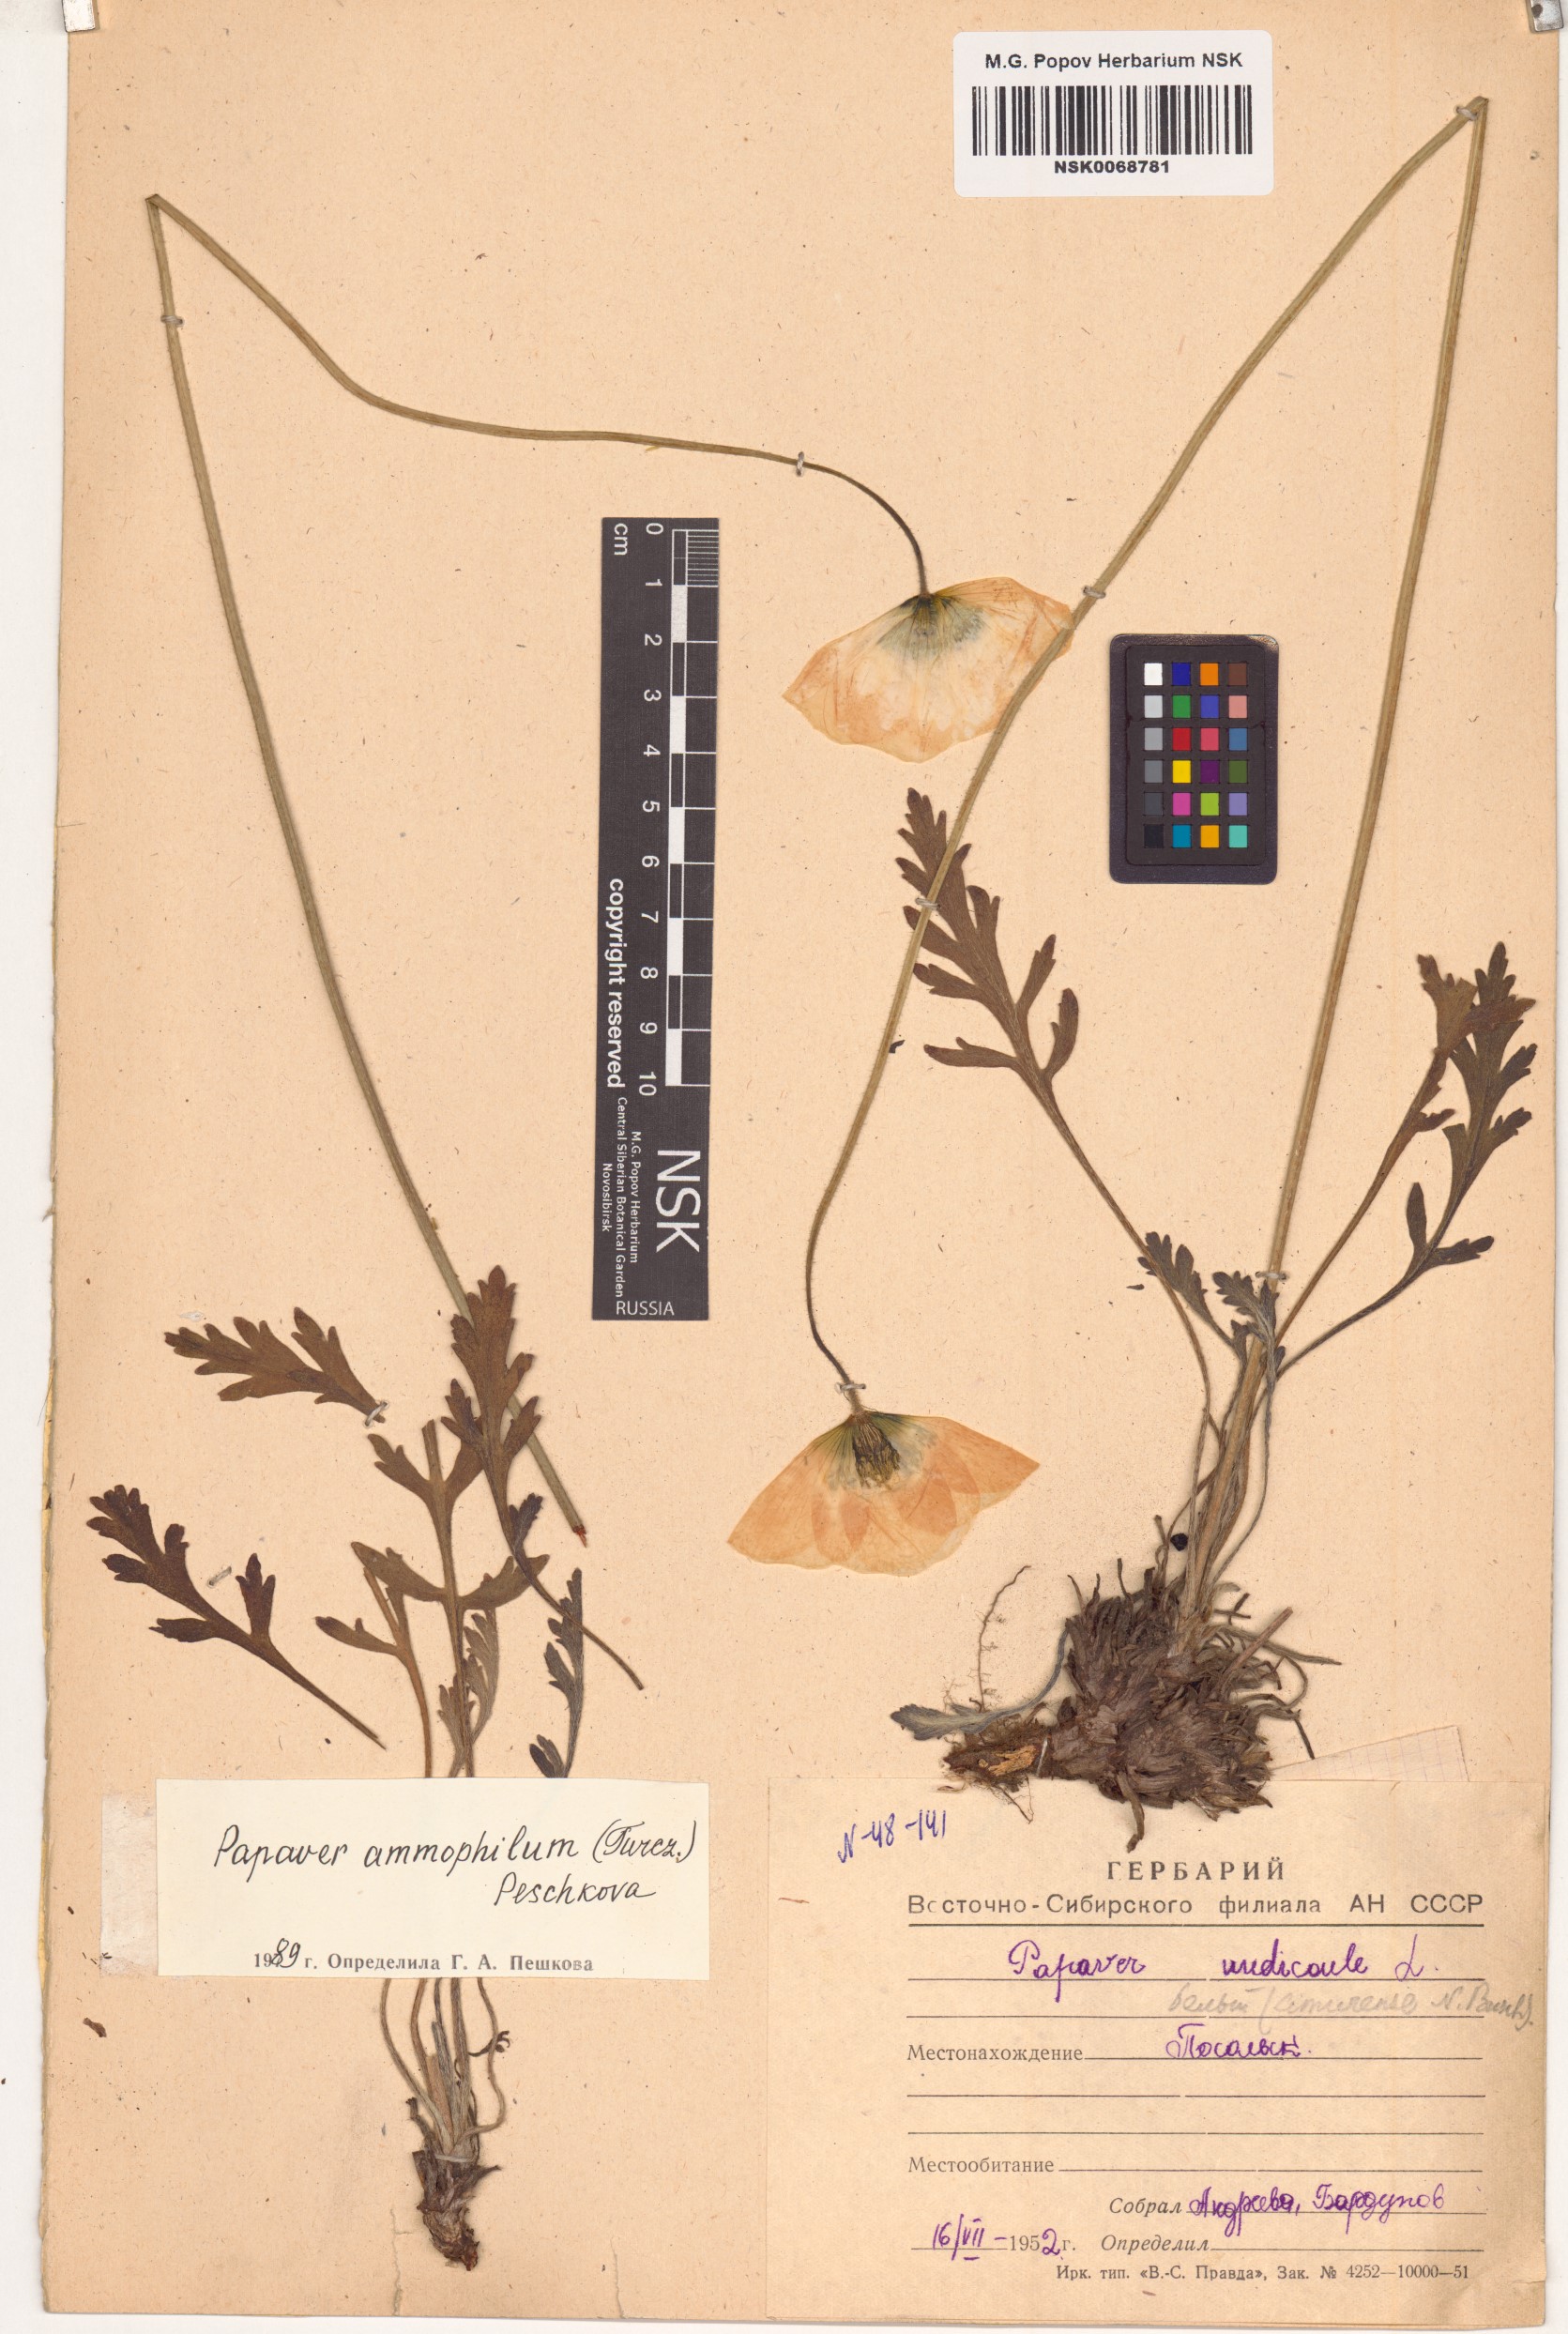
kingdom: Plantae
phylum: Tracheophyta
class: Magnoliopsida
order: Ranunculales
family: Papaveraceae
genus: Papaver
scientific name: Papaver nudicaule
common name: Arctic poppy
